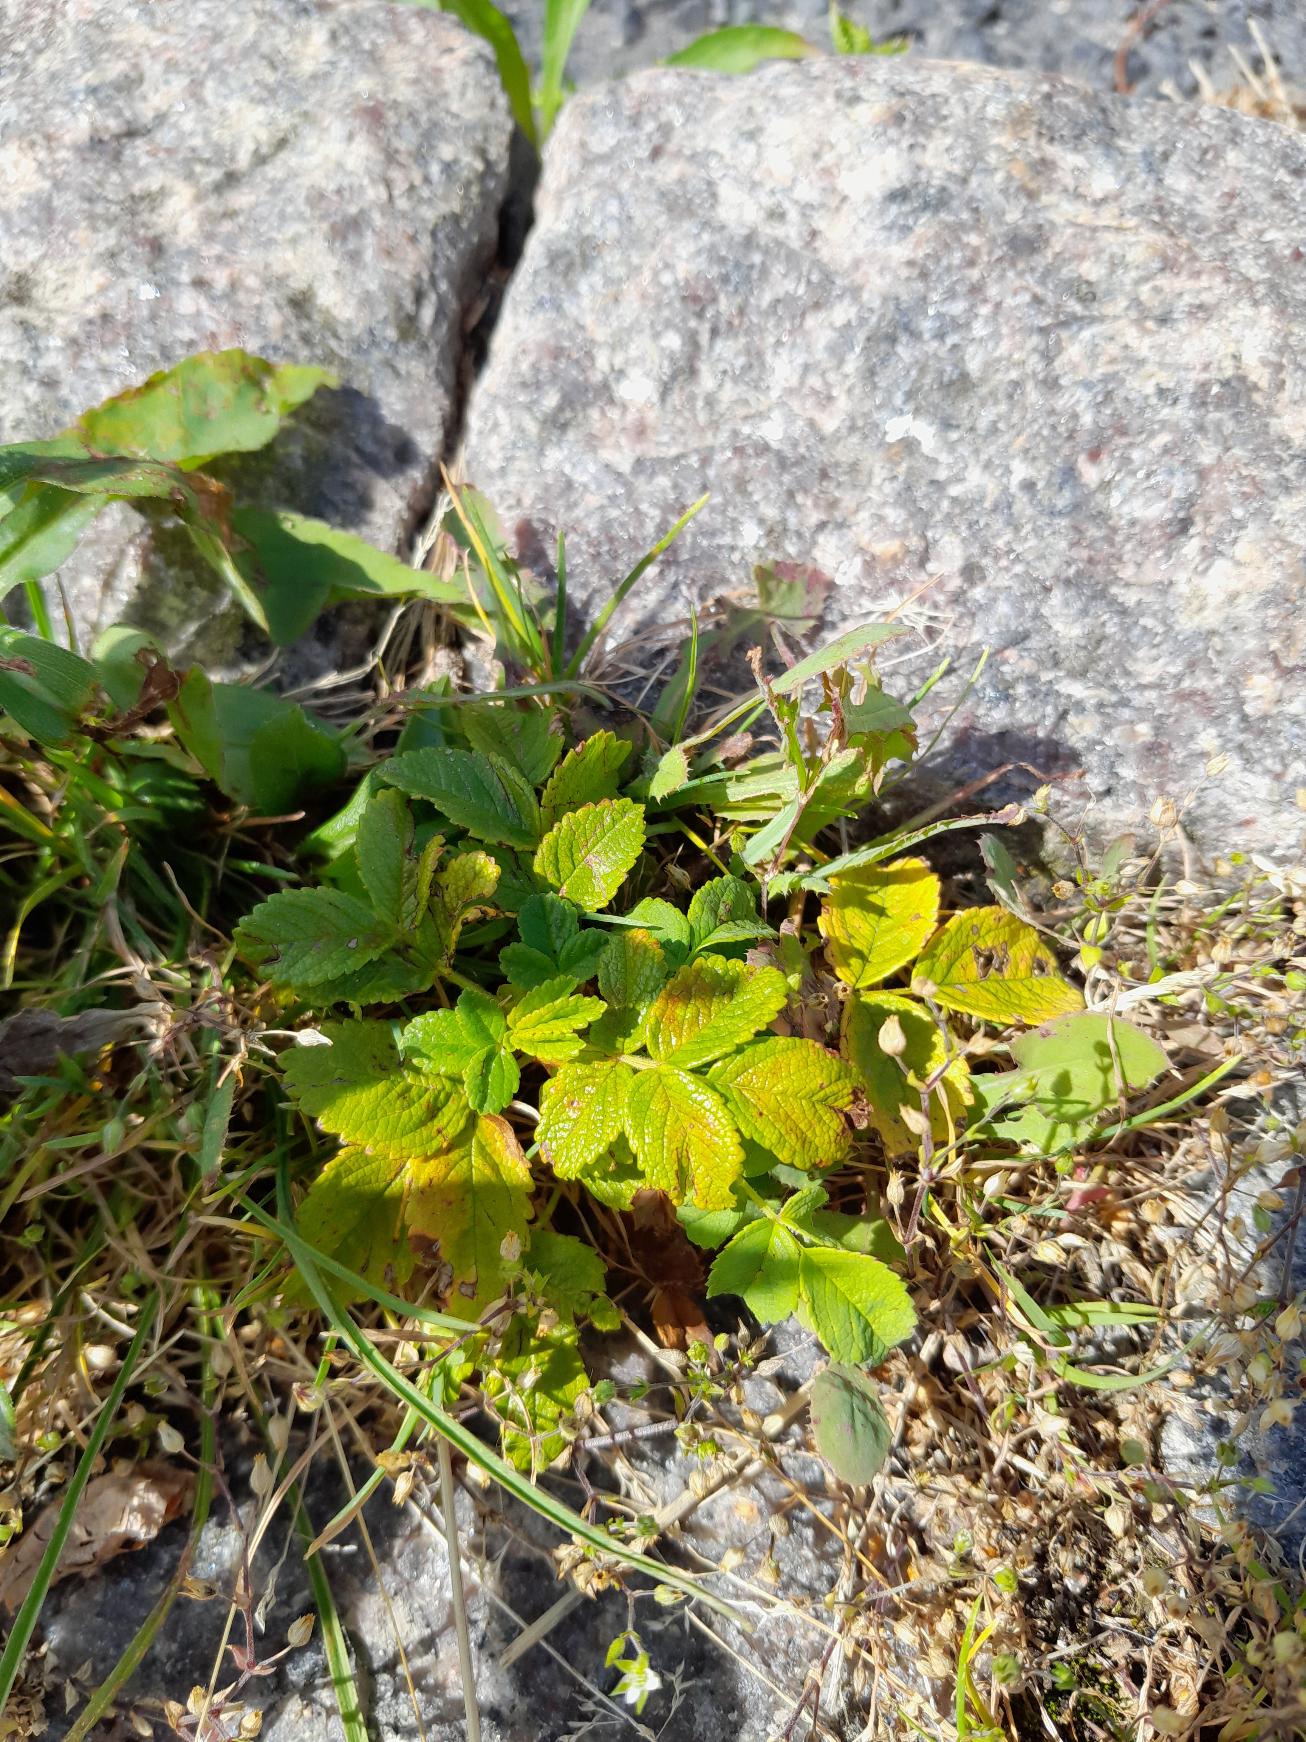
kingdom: Plantae
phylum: Tracheophyta
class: Magnoliopsida
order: Rosales
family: Rosaceae
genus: Rosa
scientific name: Rosa rugosa
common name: Rynket rose
